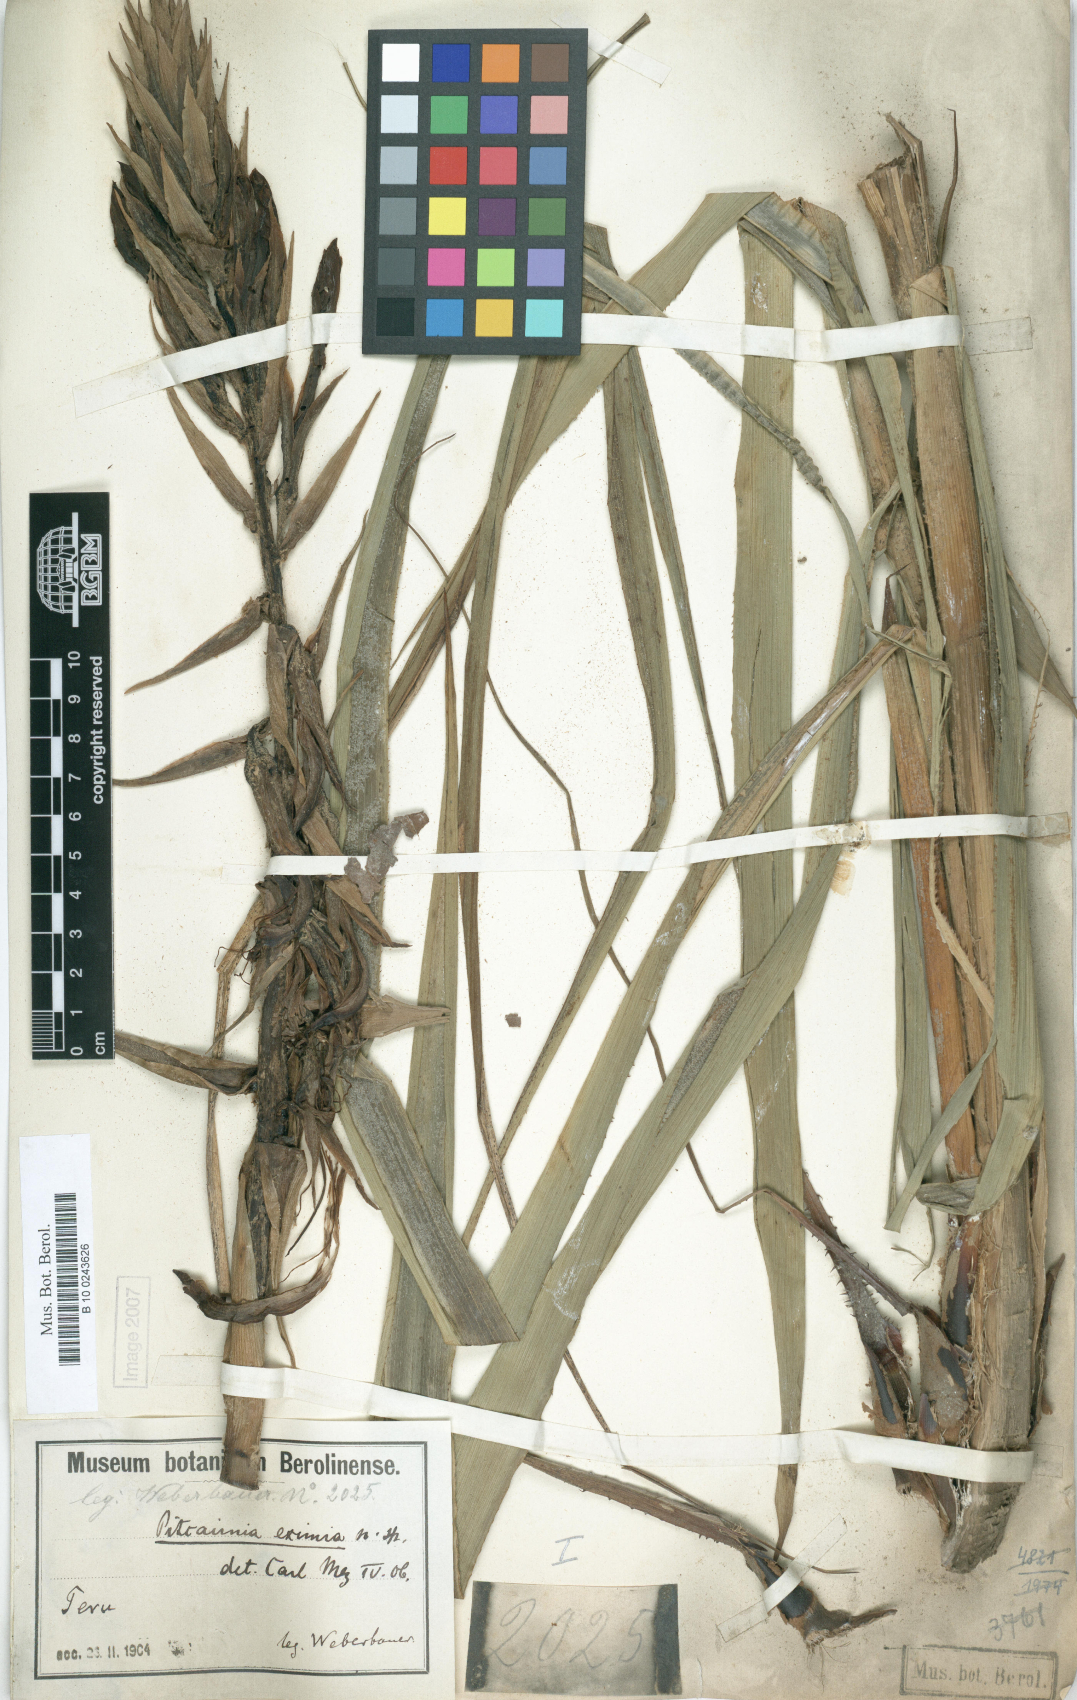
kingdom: Plantae
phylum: Tracheophyta
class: Liliopsida
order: Poales
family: Bromeliaceae
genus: Pitcairnia
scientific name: Pitcairnia eximia
